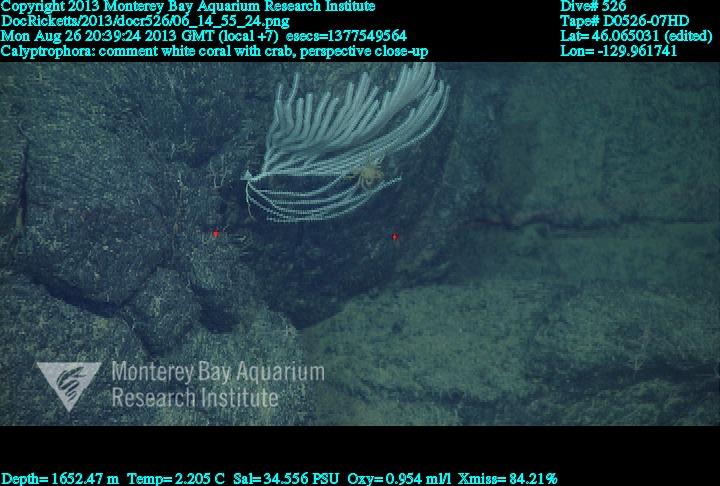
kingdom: Animalia
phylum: Cnidaria
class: Anthozoa
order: Scleralcyonacea
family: Primnoidae
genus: Calyptrophora
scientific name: Calyptrophora
